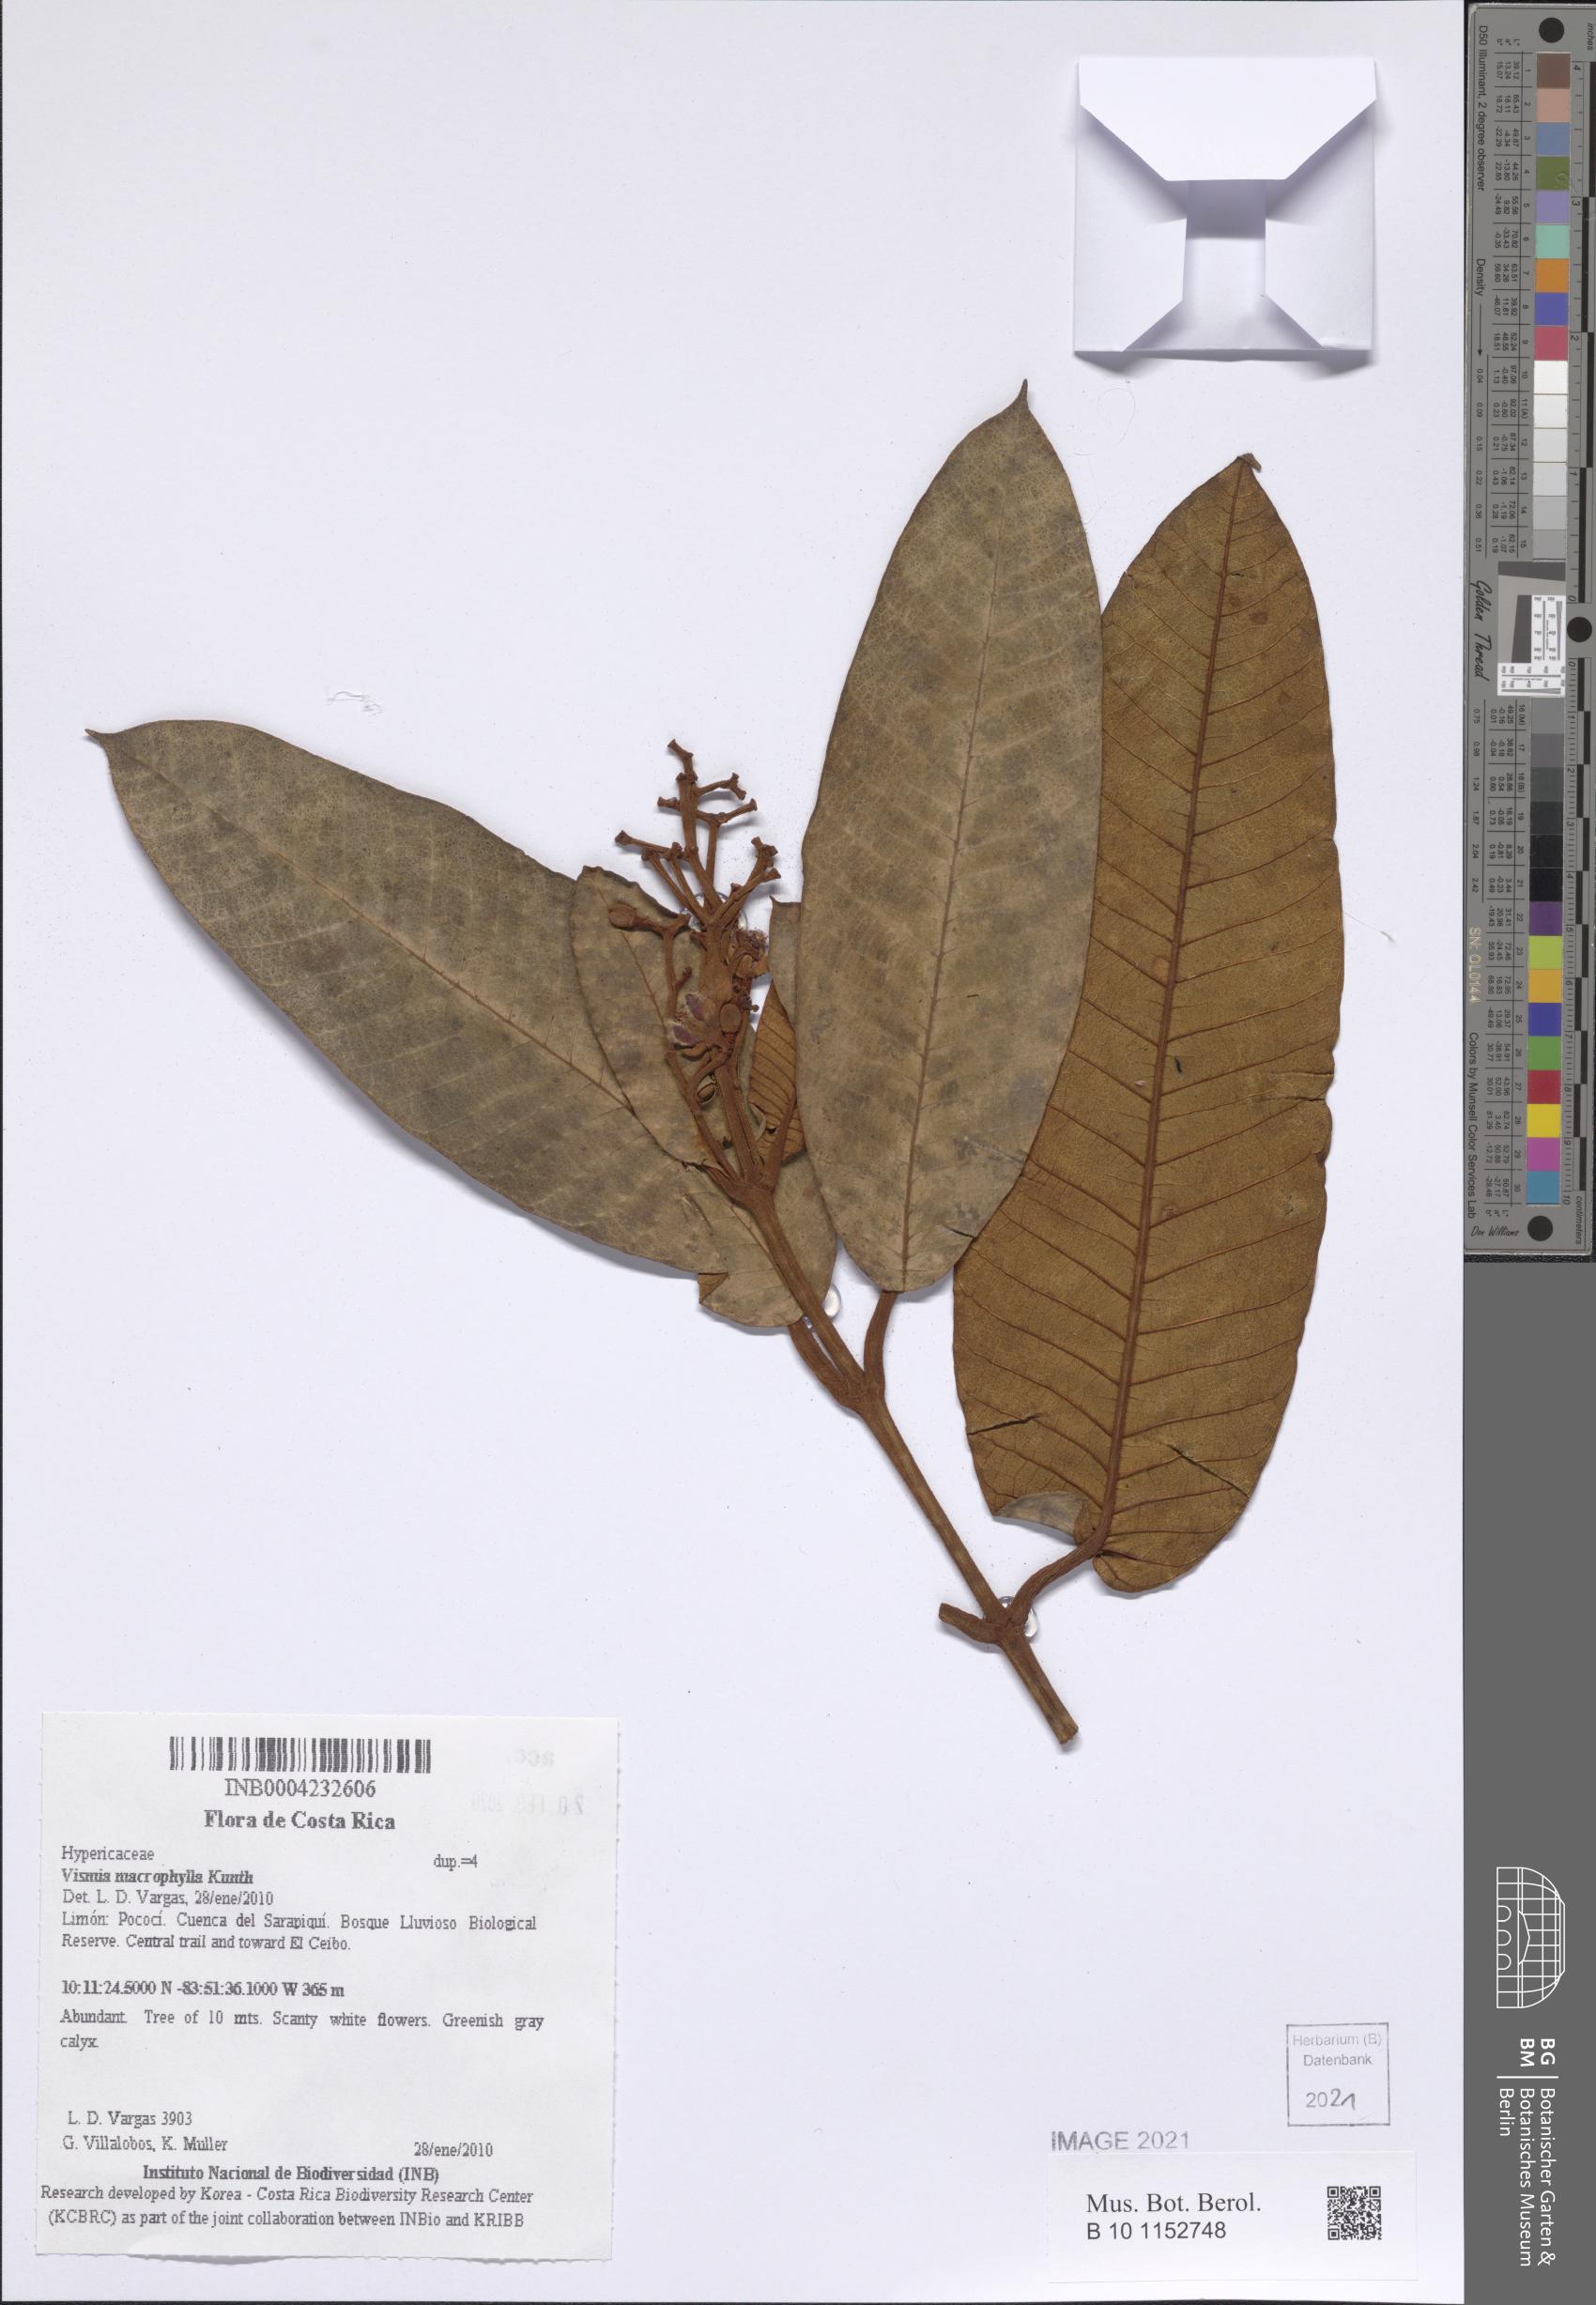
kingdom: Plantae
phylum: Tracheophyta
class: Magnoliopsida
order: Malpighiales
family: Hypericaceae
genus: Vismia
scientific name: Vismia macrophylla
